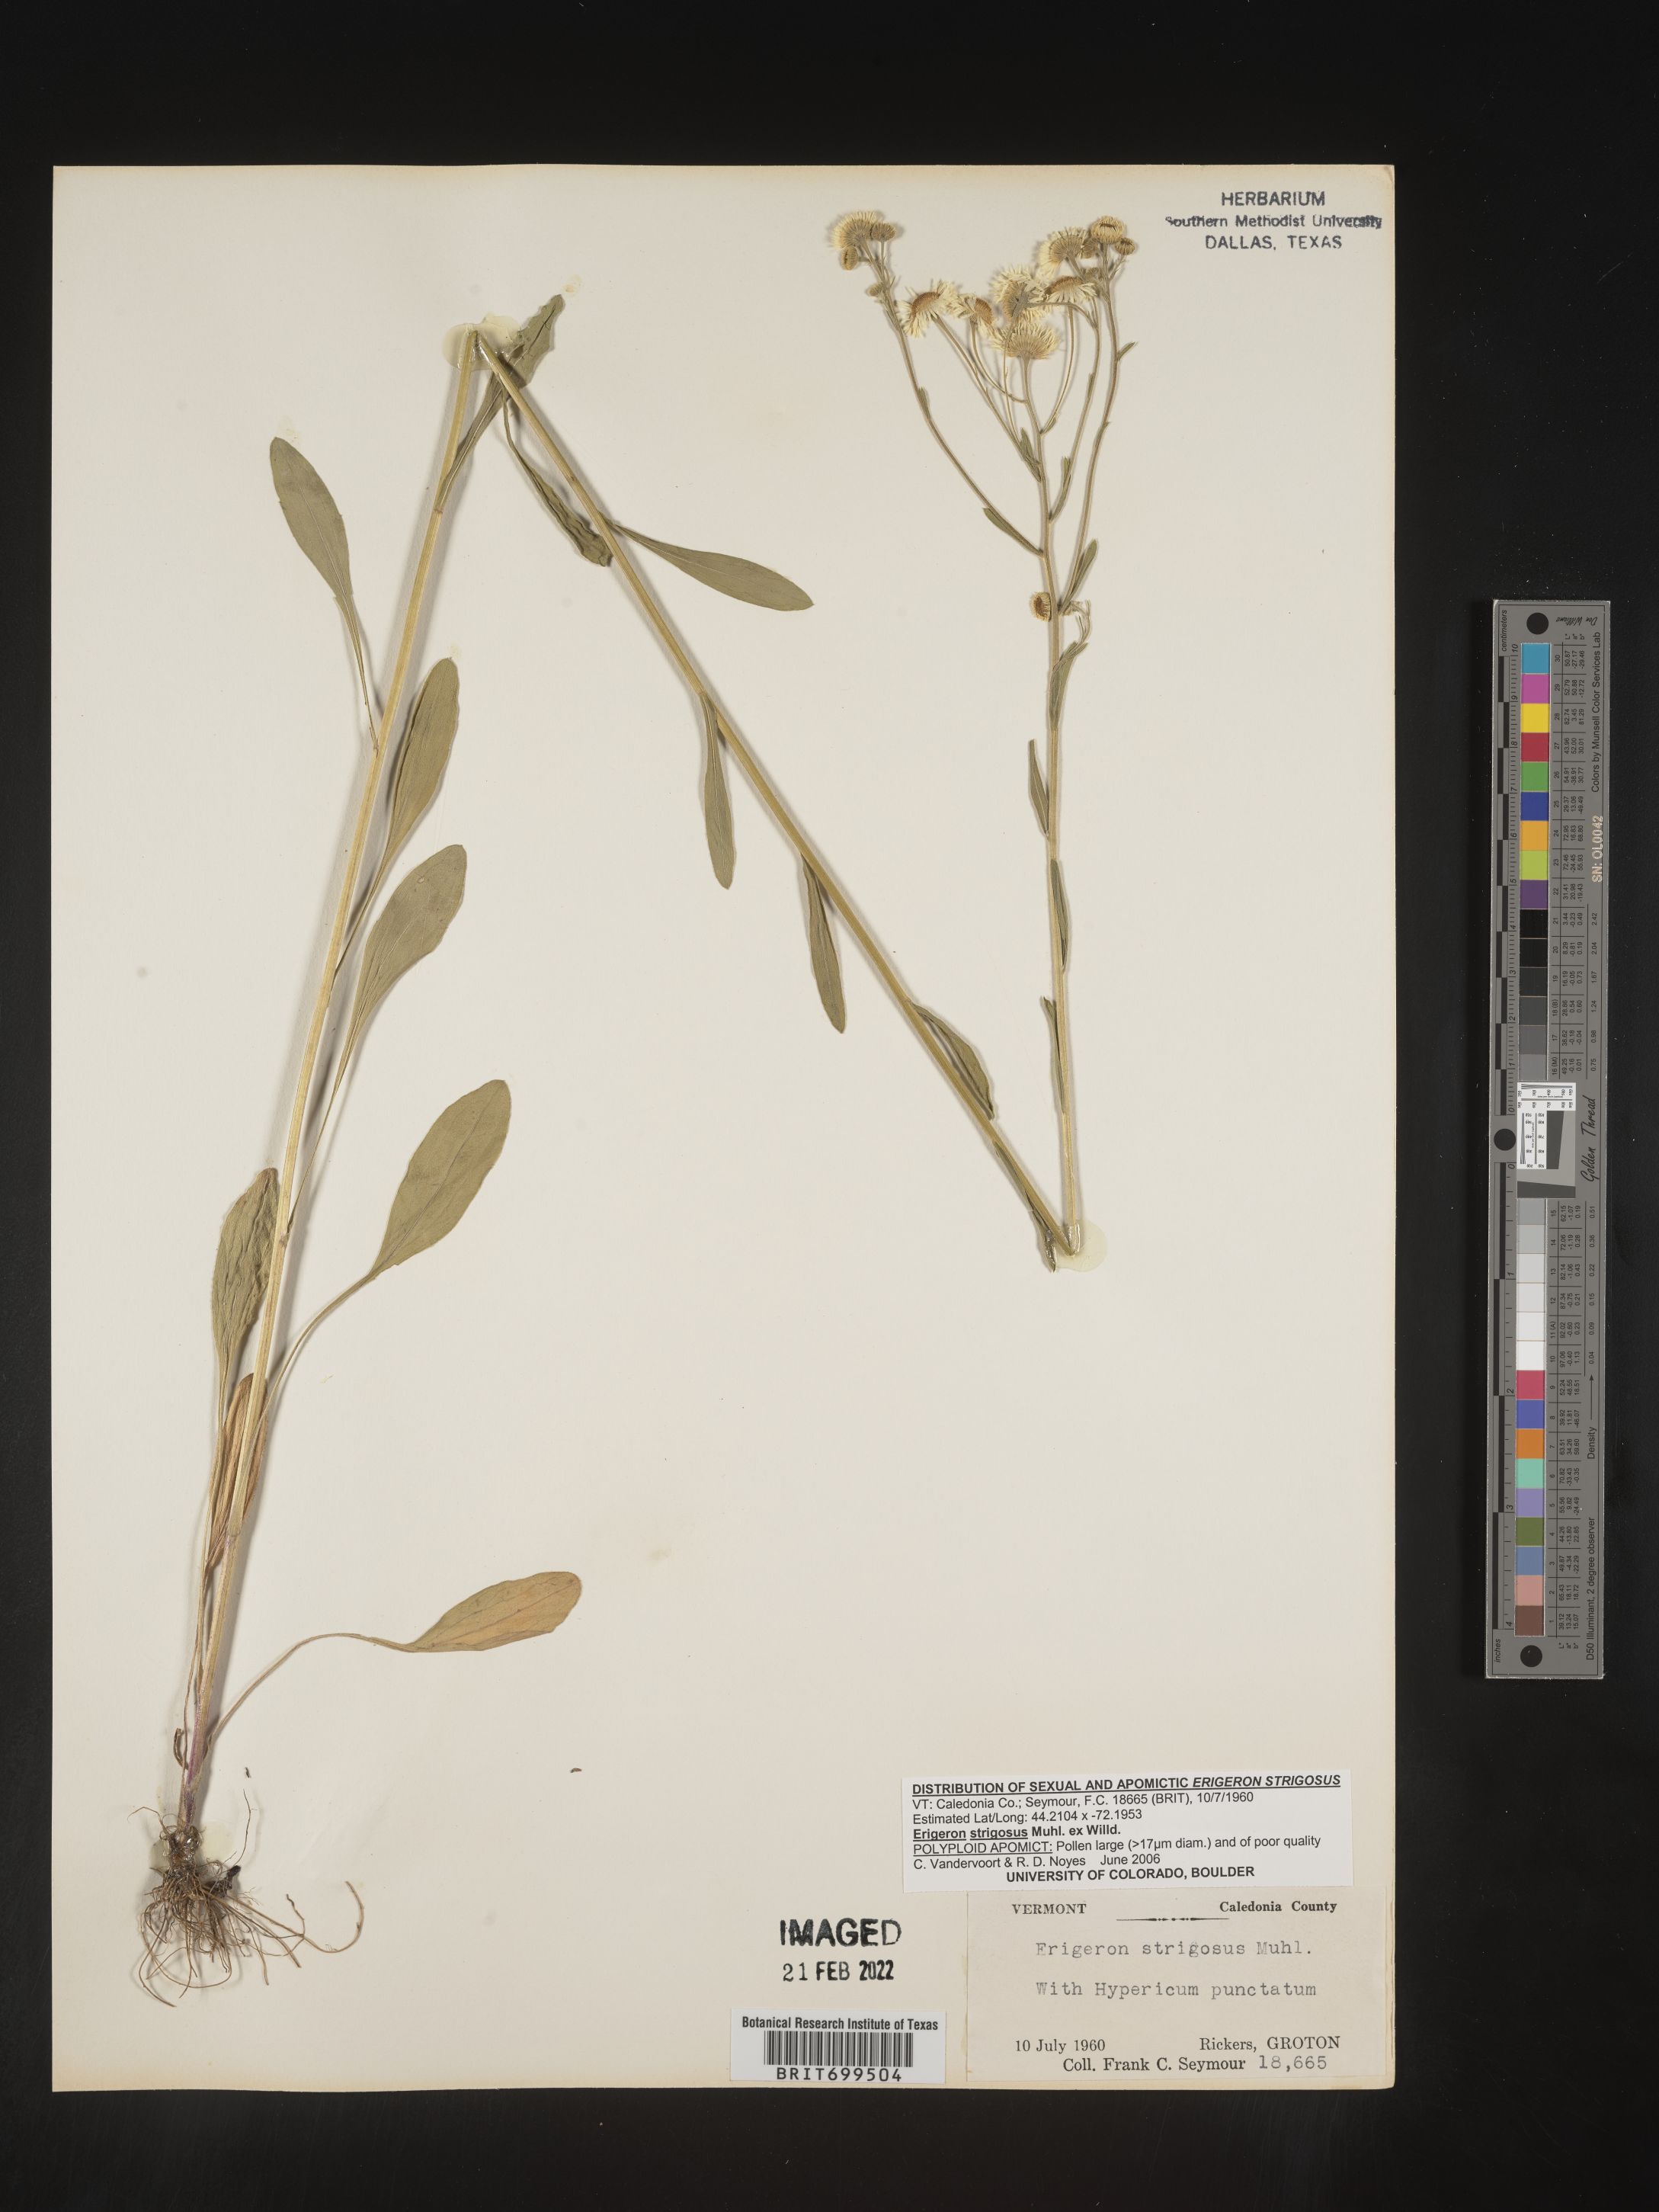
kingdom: Plantae
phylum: Tracheophyta
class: Magnoliopsida
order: Asterales
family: Asteraceae
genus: Erigeron
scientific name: Erigeron strigosus
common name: Common eastern fleabane
